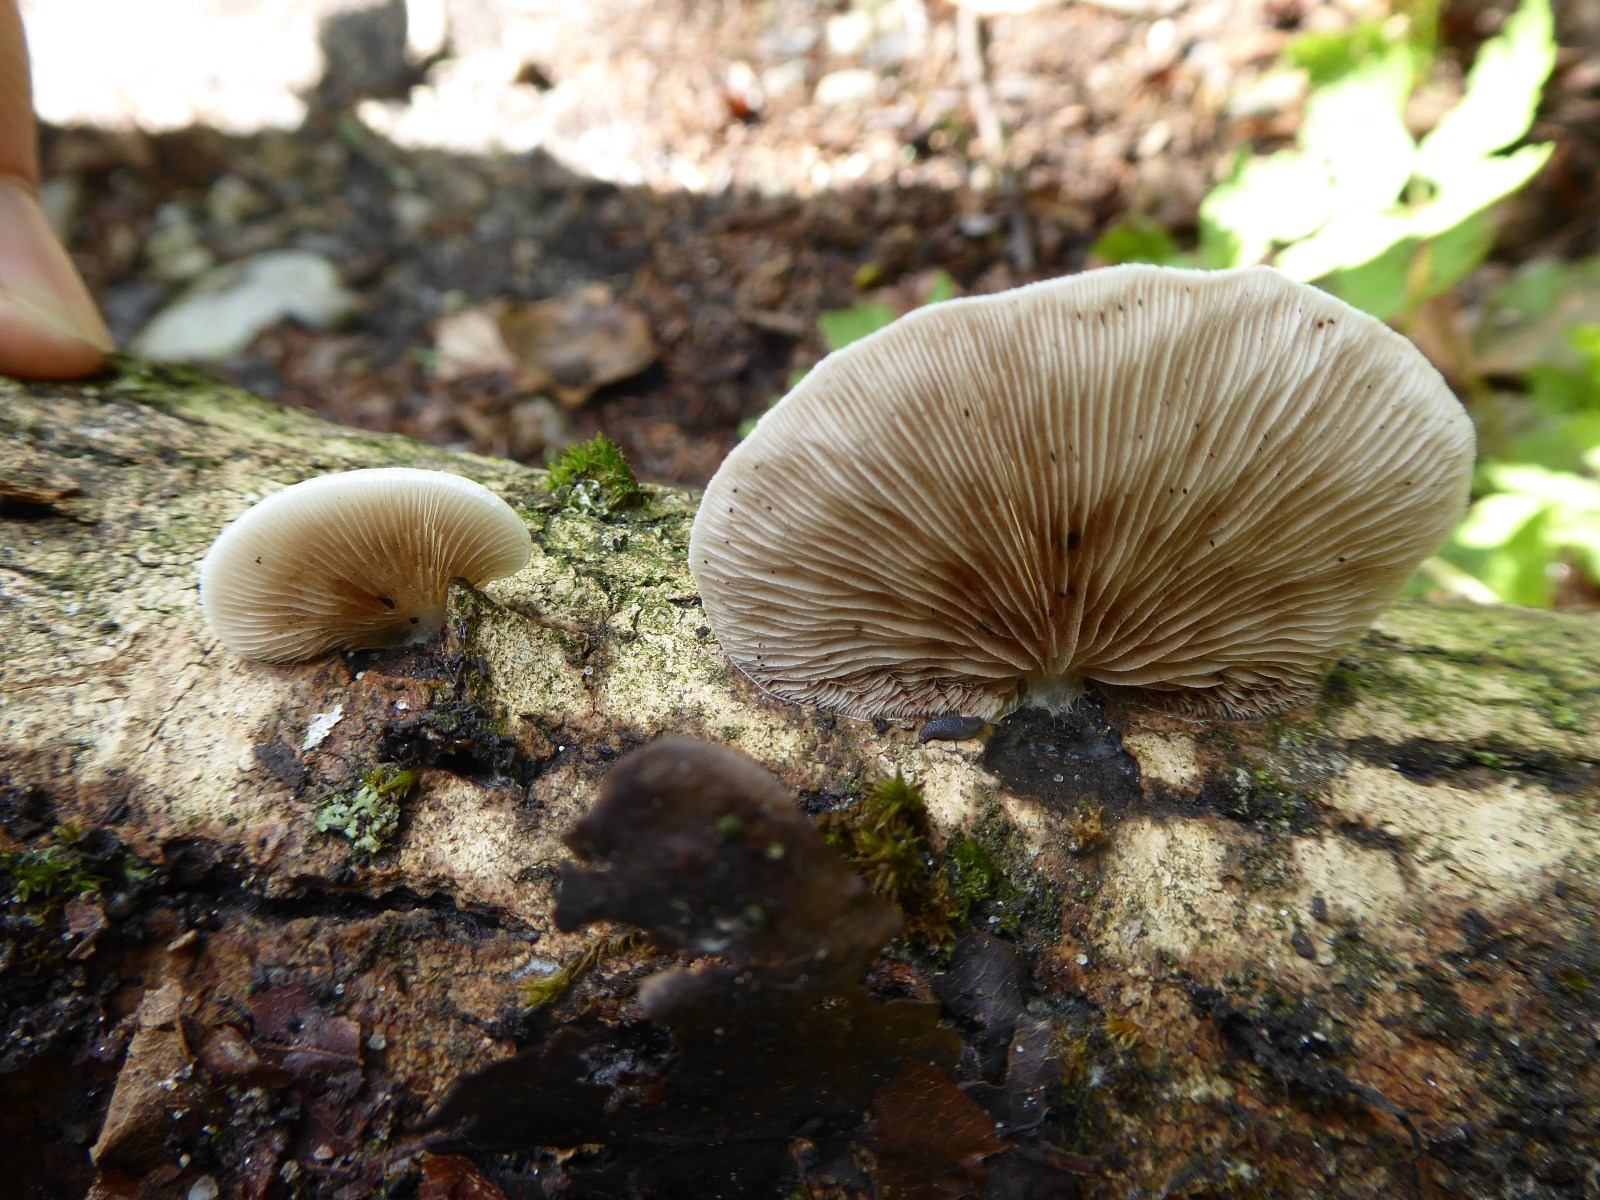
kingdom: Fungi
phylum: Basidiomycota
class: Agaricomycetes
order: Agaricales
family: Crepidotaceae
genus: Crepidotus
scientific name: Crepidotus mollis
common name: blød muslingesvamp
